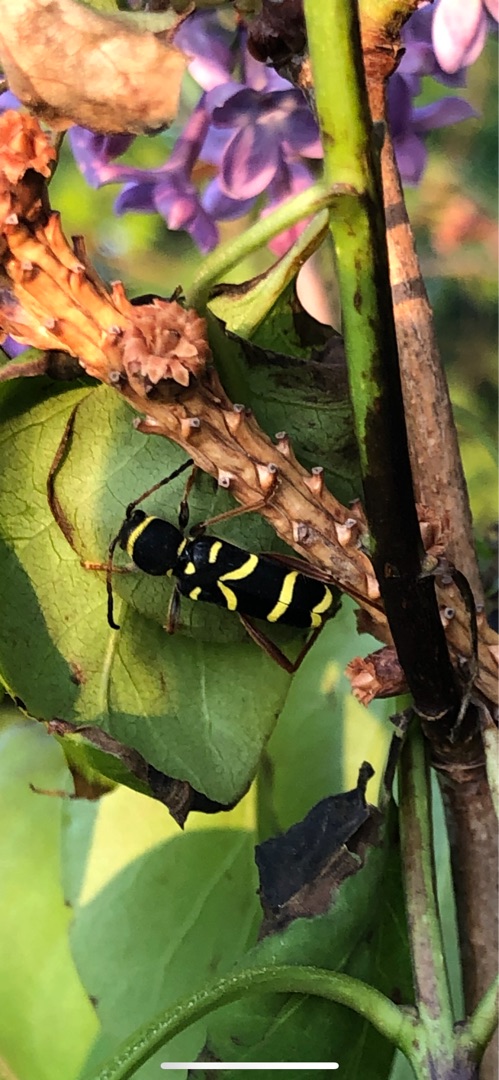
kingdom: Animalia
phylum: Arthropoda
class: Insecta
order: Coleoptera
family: Cerambycidae
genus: Clytus
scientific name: Clytus arietis
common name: Lille hvepsebuk
